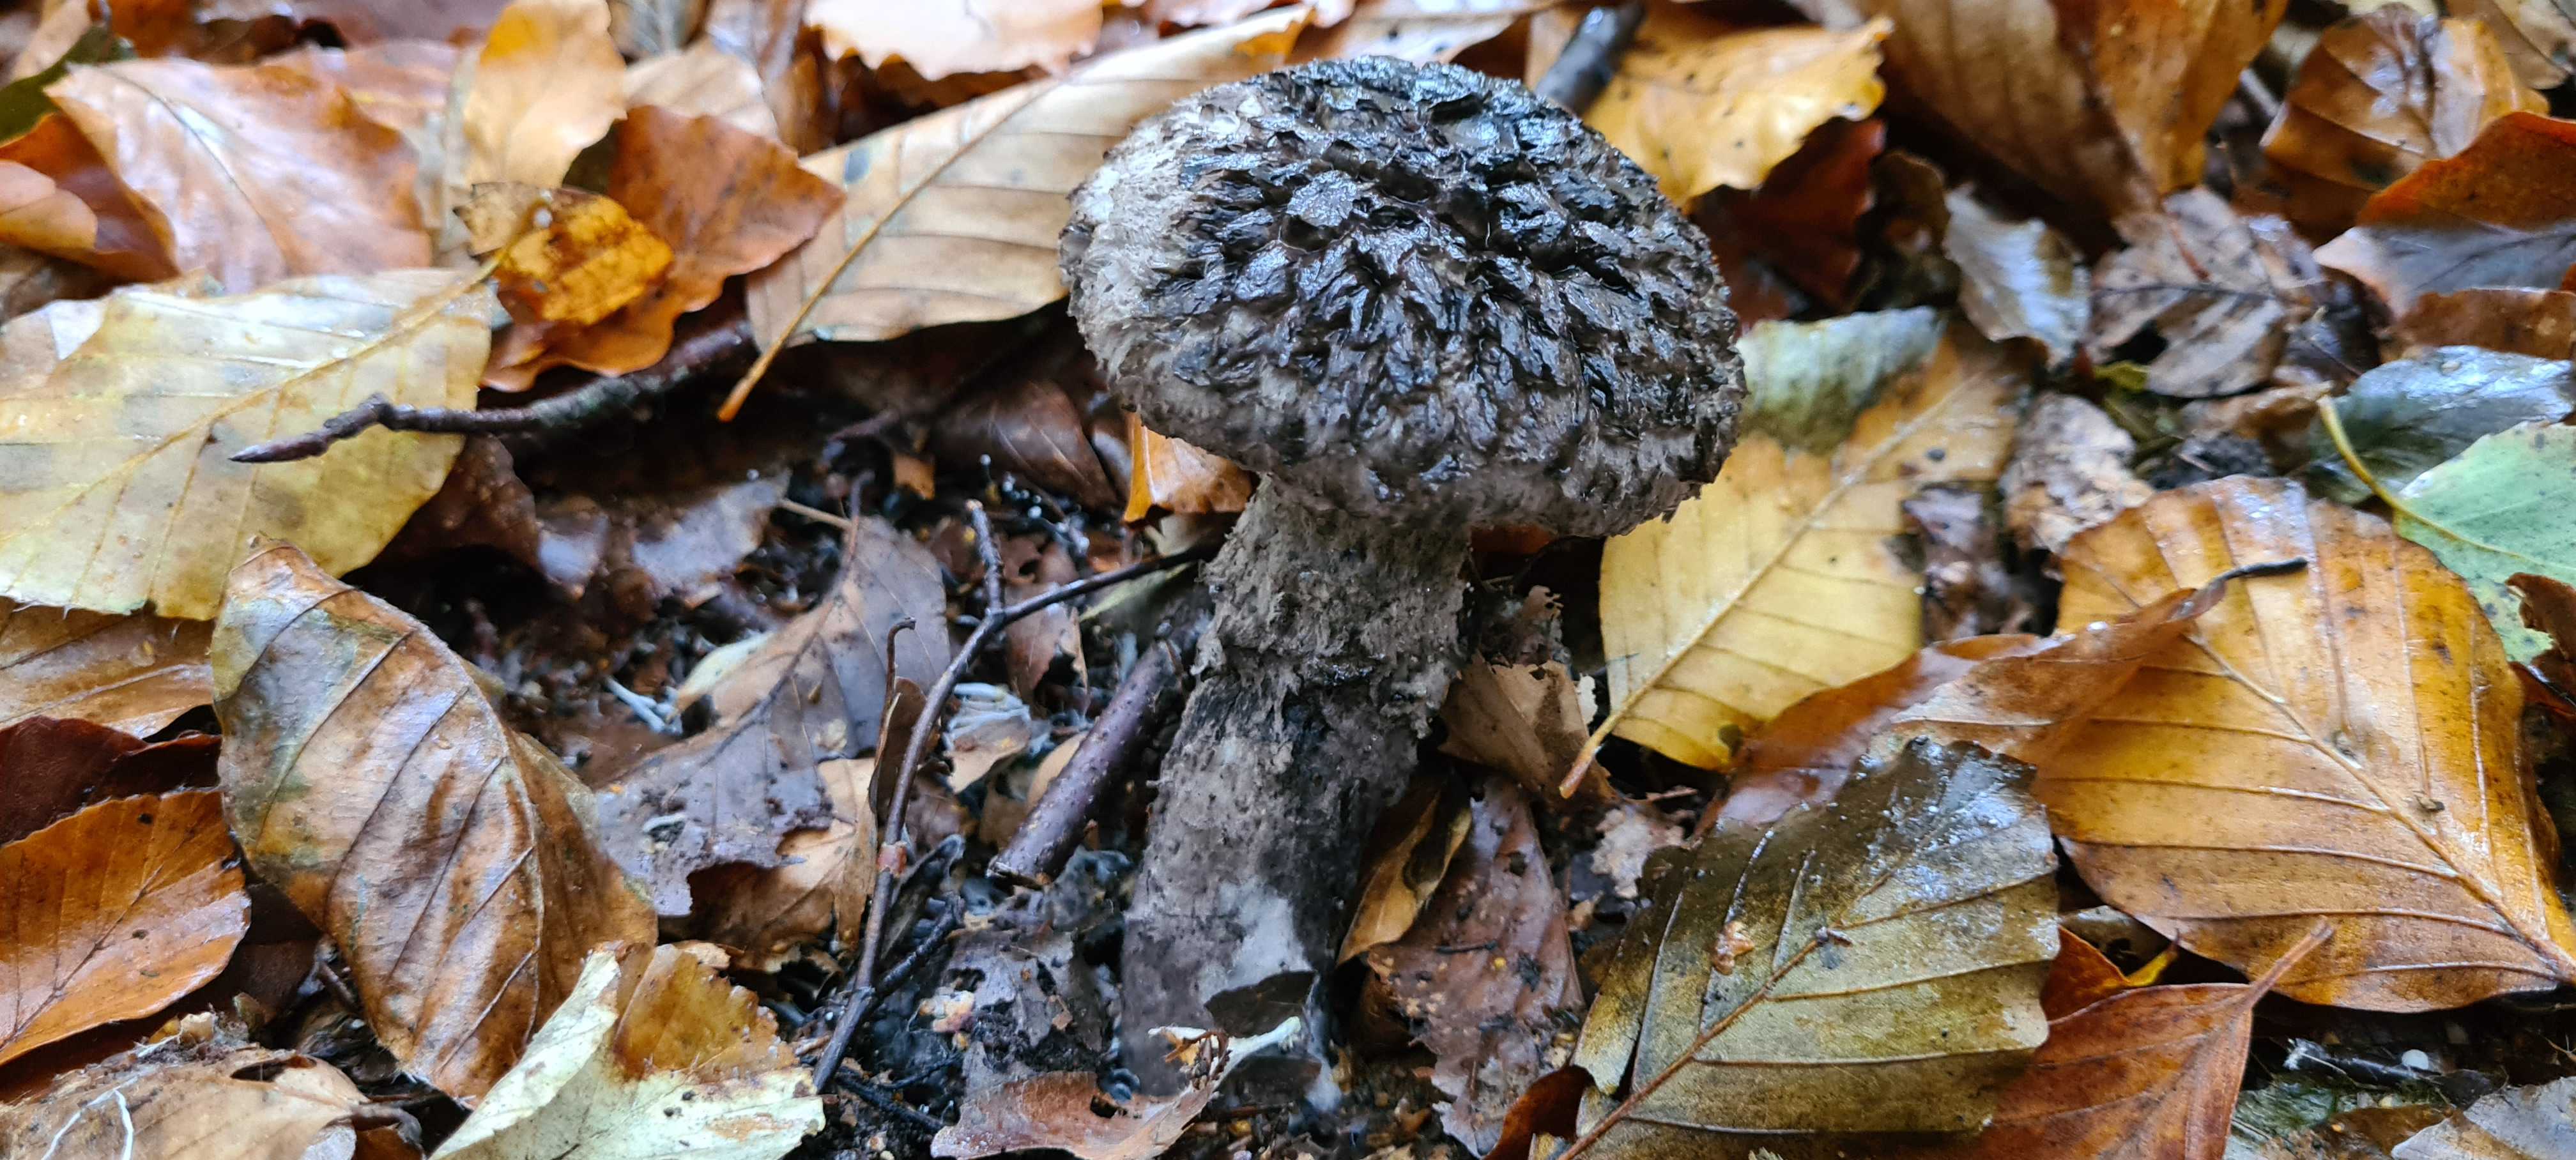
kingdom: Fungi
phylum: Basidiomycota
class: Agaricomycetes
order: Boletales
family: Boletaceae
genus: Strobilomyces
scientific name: Strobilomyces strobilaceus
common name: koglerørhat
